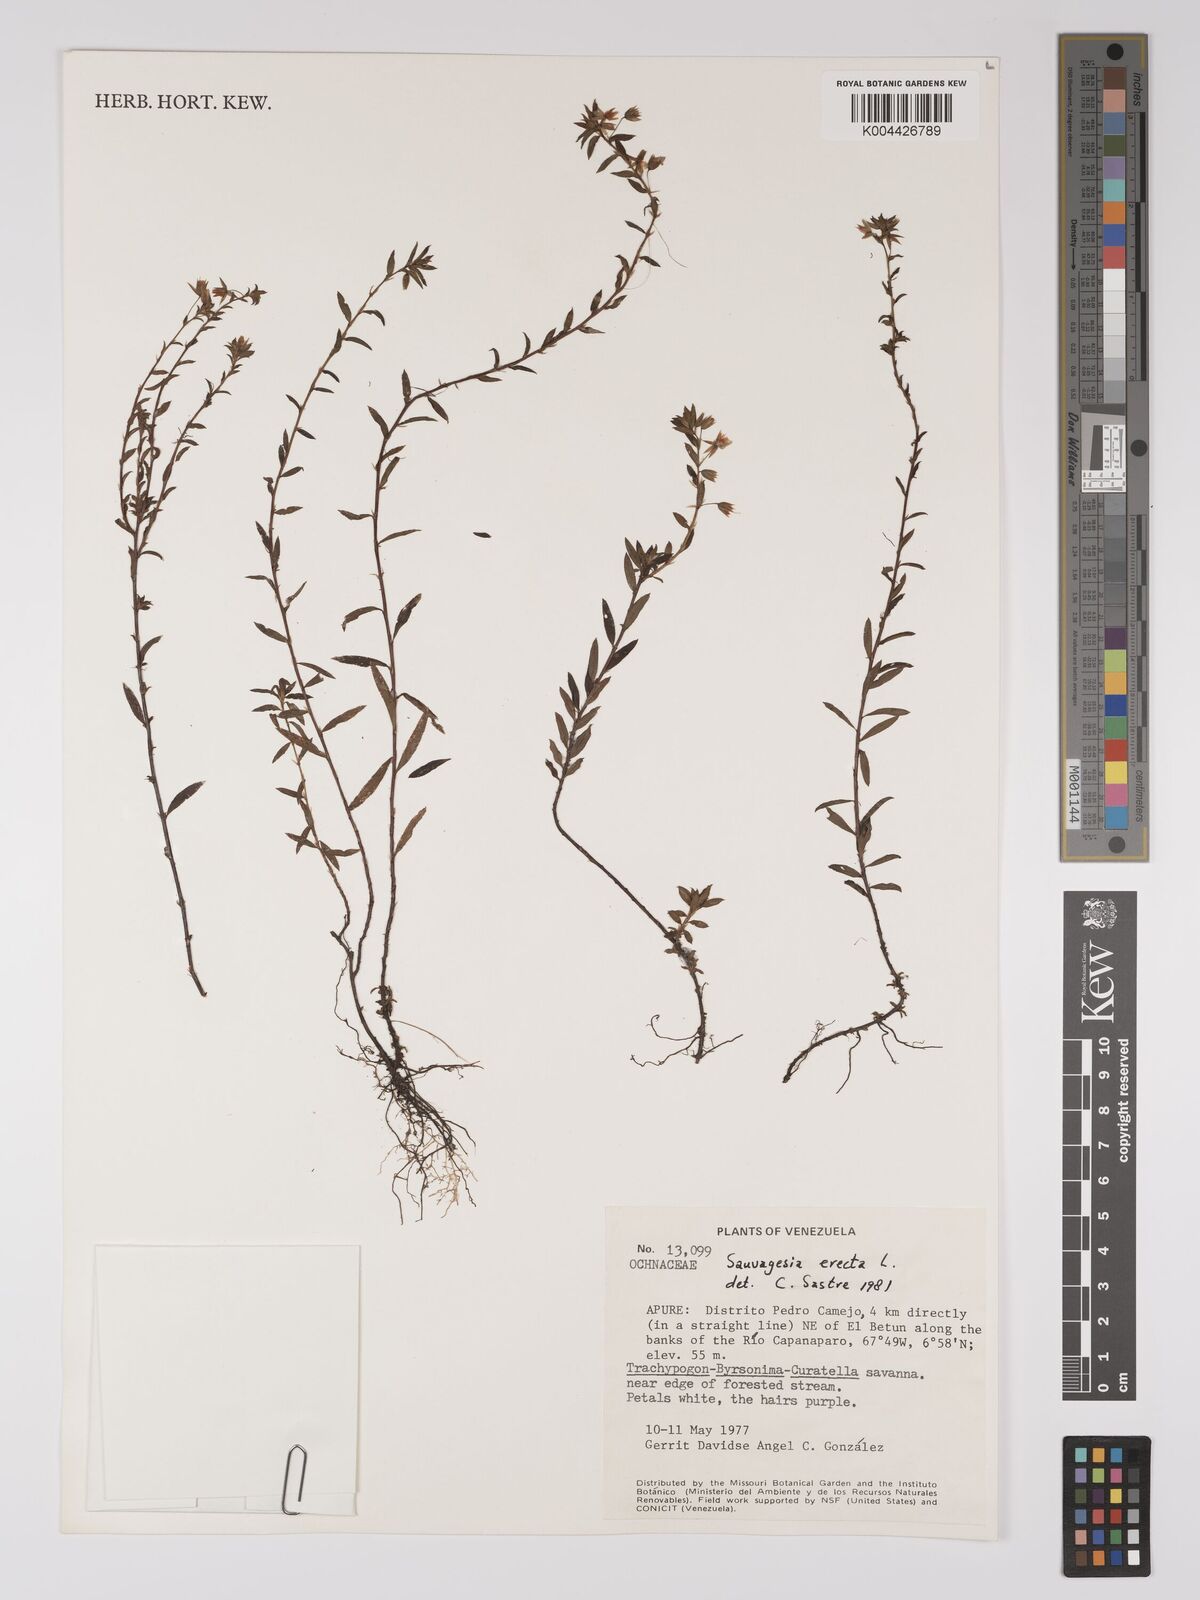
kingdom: Plantae
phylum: Tracheophyta
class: Magnoliopsida
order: Malpighiales
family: Ochnaceae
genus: Sauvagesia
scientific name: Sauvagesia erecta
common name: Creole tea
